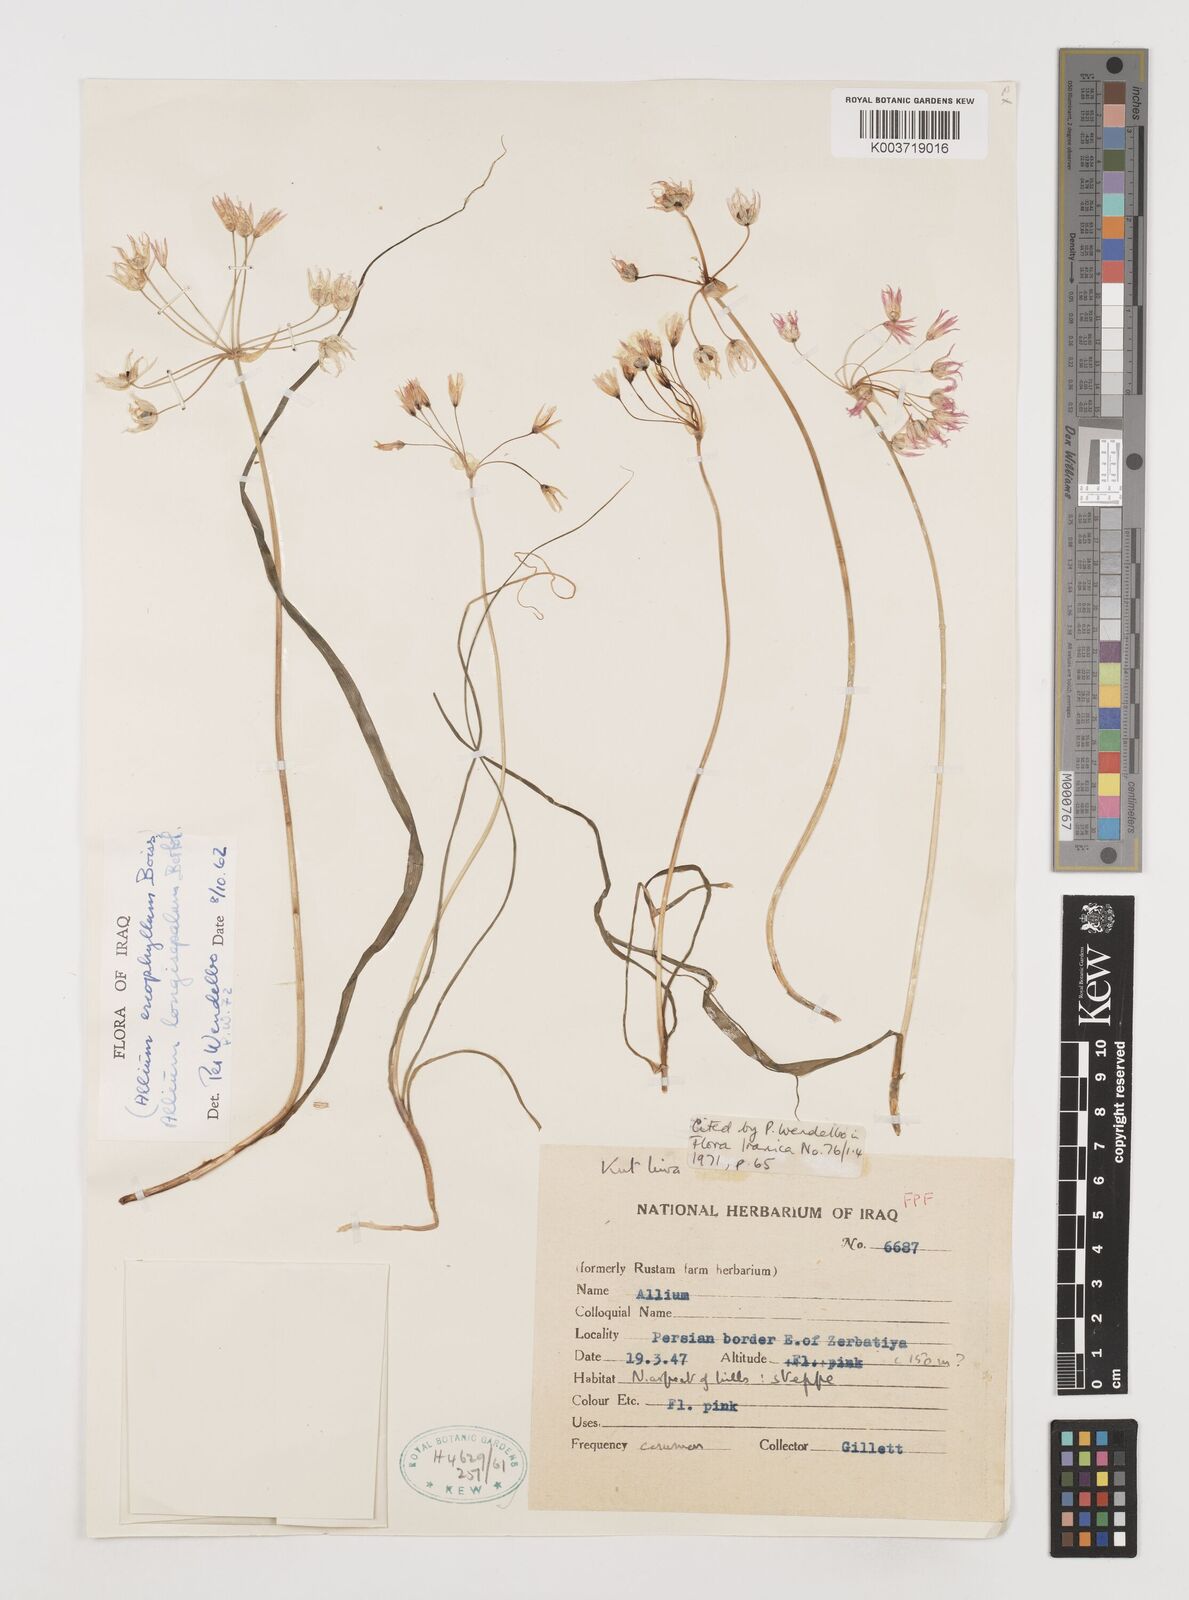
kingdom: Plantae
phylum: Tracheophyta
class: Liliopsida
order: Asparagales
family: Amaryllidaceae
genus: Allium
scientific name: Allium longisepalum
